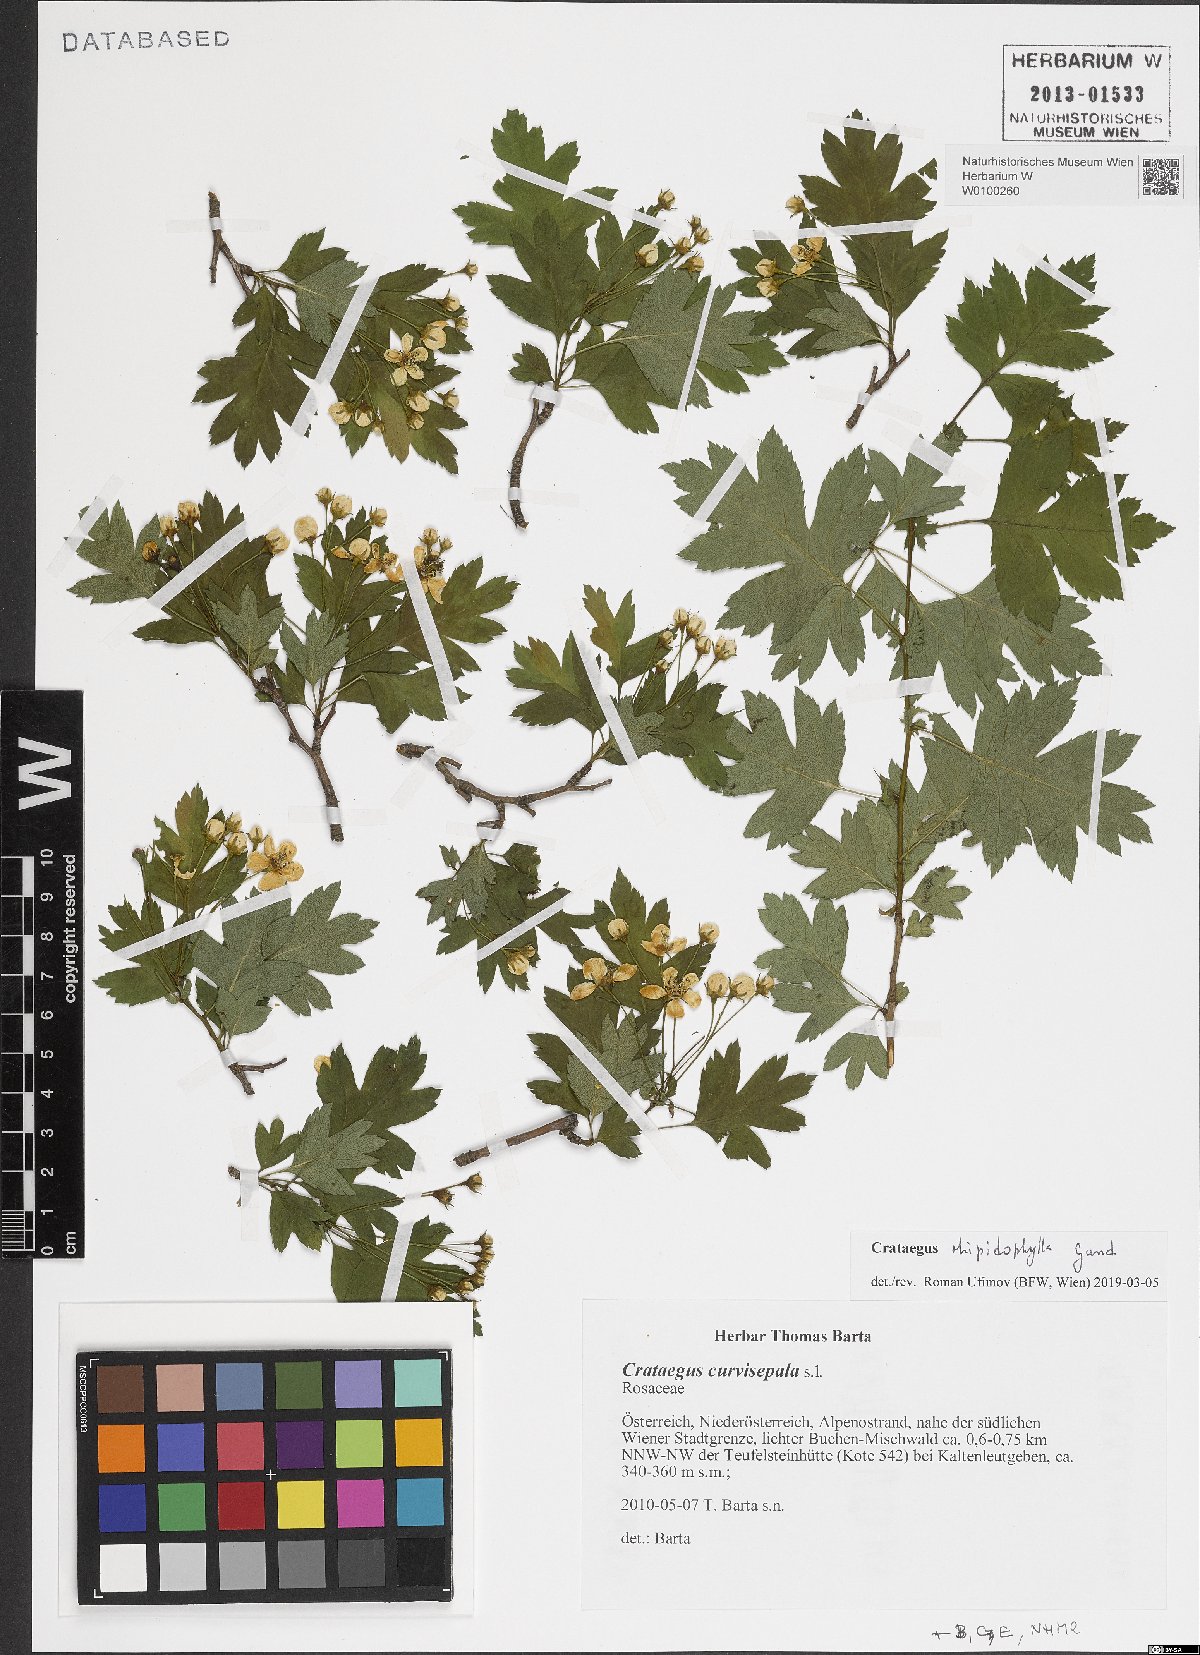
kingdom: Plantae
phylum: Tracheophyta
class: Magnoliopsida
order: Rosales
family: Rosaceae
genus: Crataegus
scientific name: Crataegus rhipidophylla
